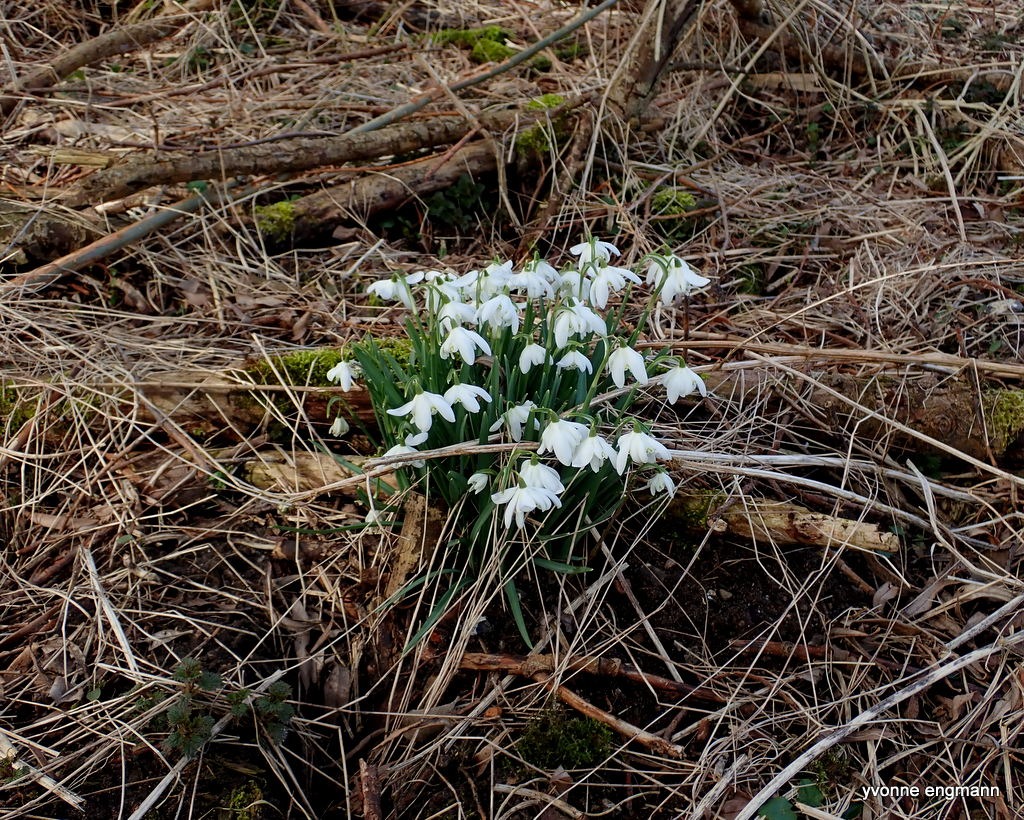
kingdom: Plantae
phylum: Tracheophyta
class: Liliopsida
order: Asparagales
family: Amaryllidaceae
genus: Galanthus
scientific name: Galanthus nivalis
